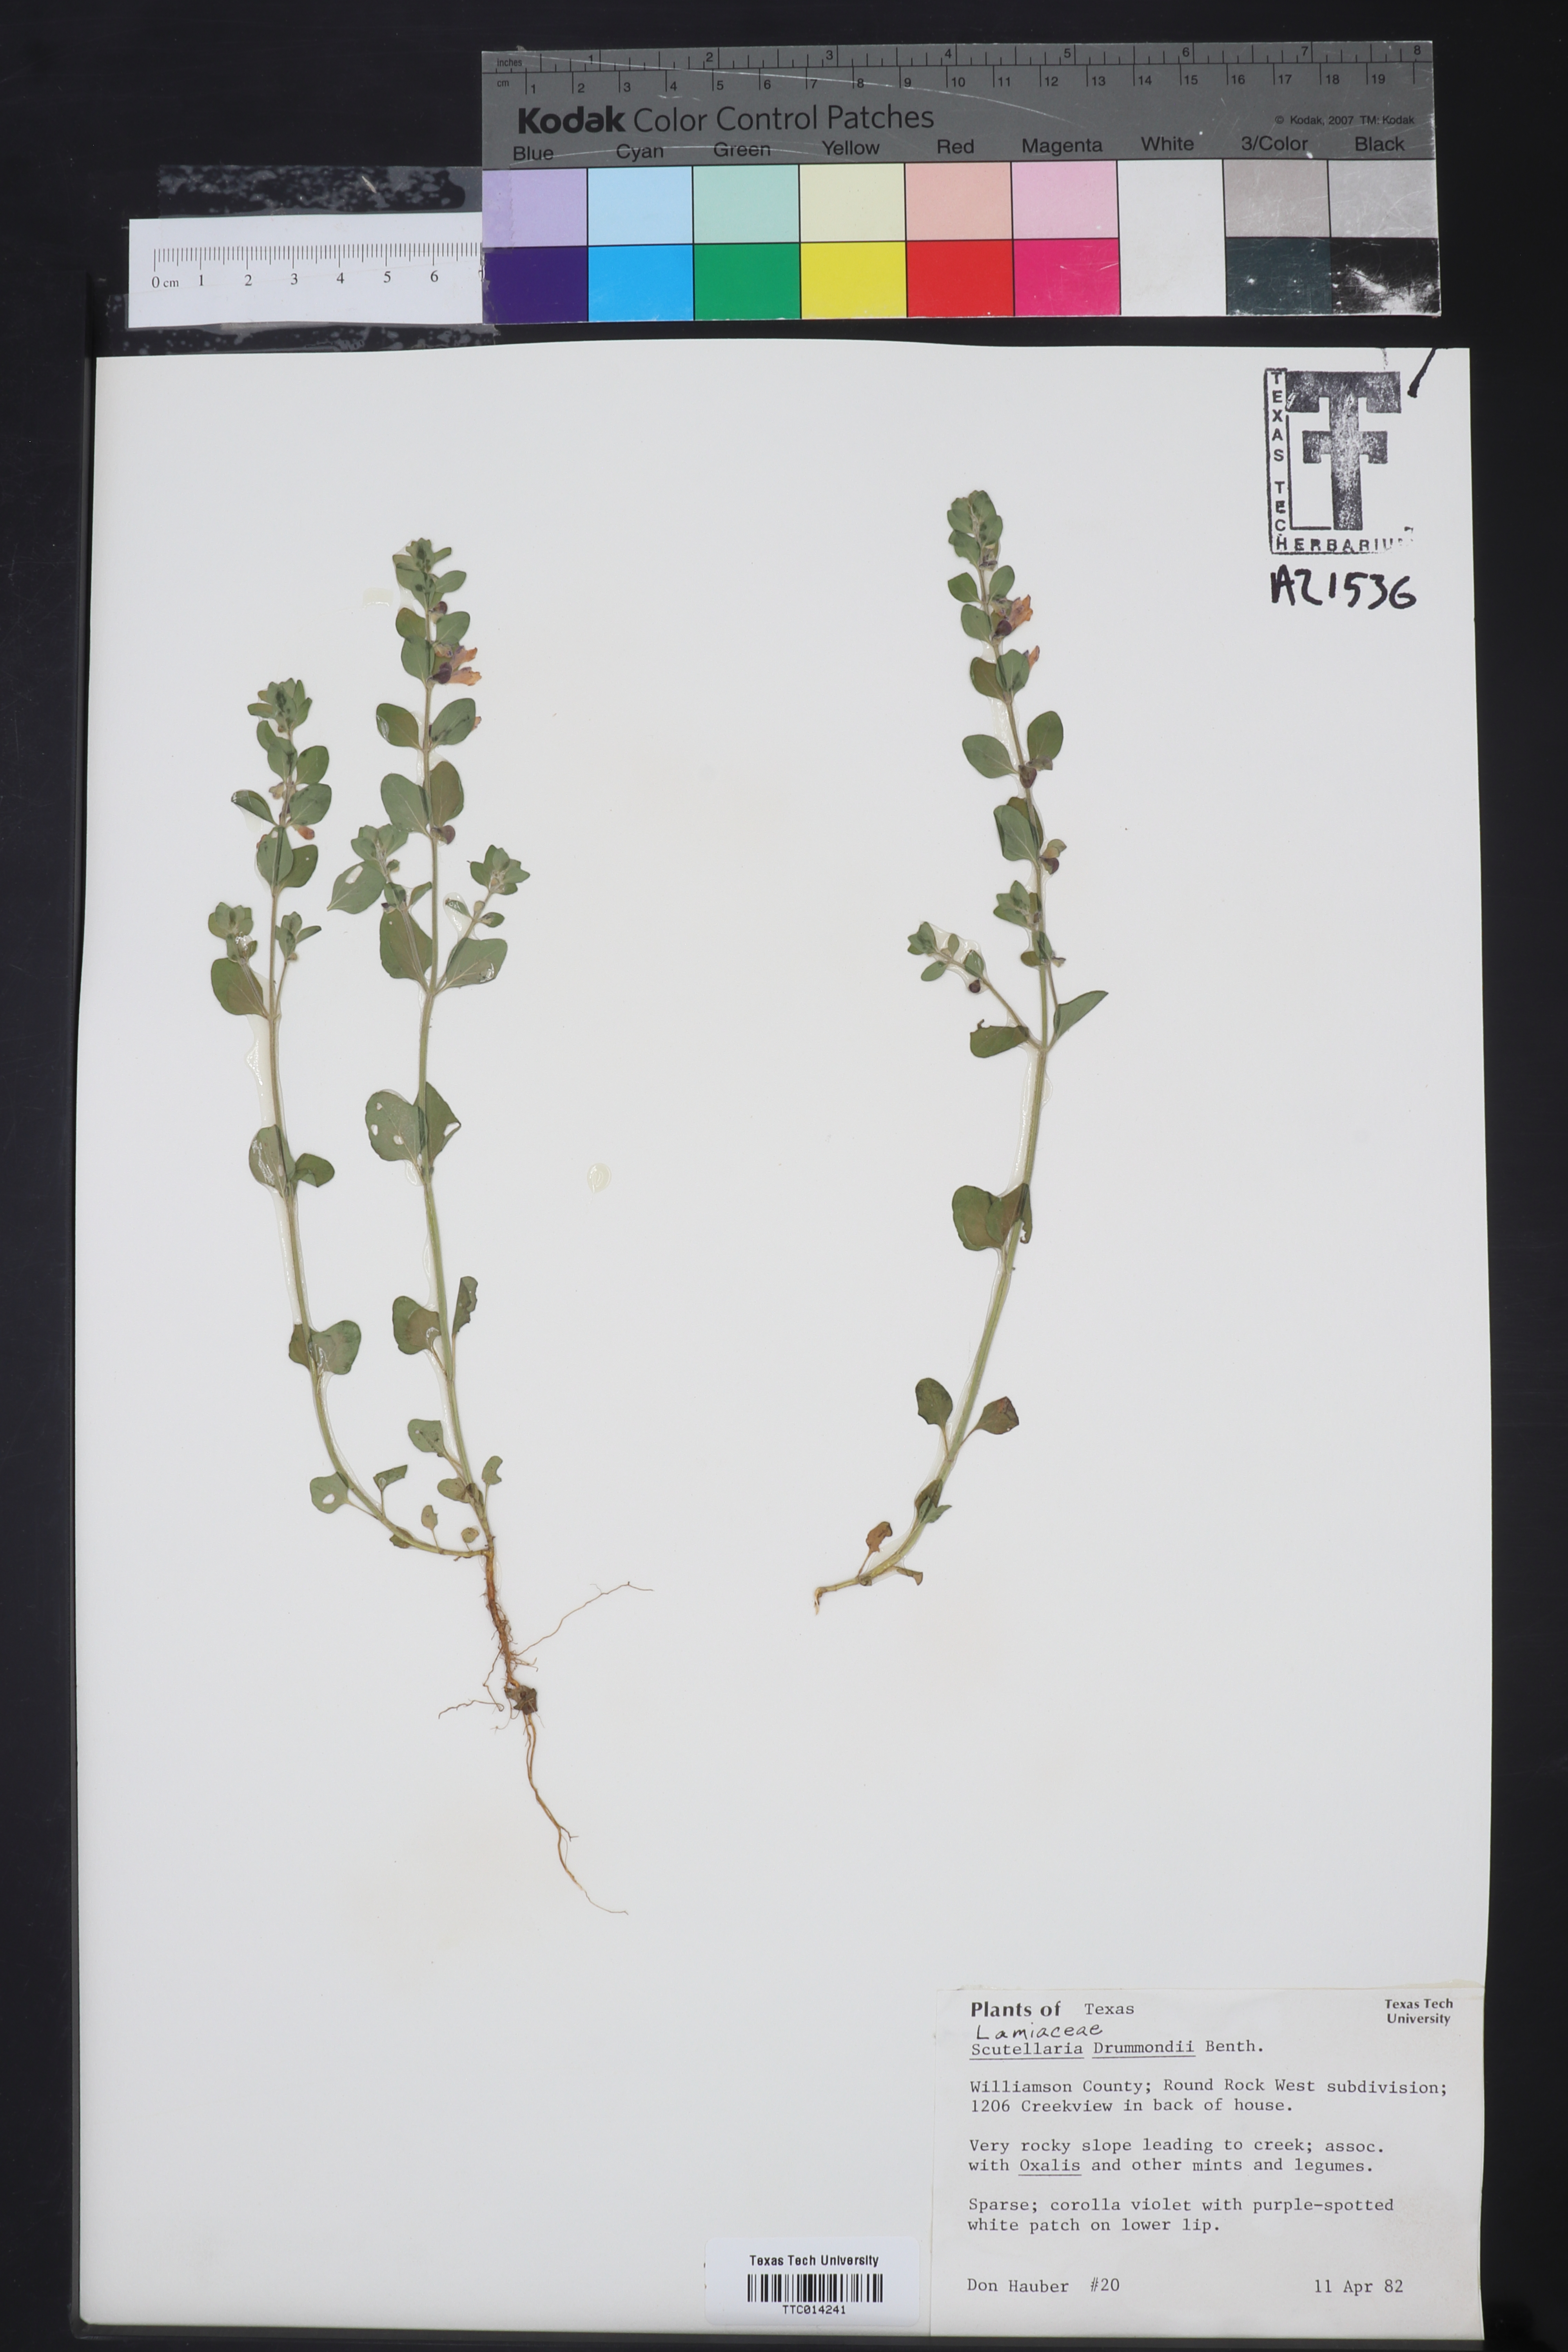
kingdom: Plantae
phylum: Tracheophyta
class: Magnoliopsida
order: Lamiales
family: Lamiaceae
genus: Scutellaria
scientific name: Scutellaria drummondii
